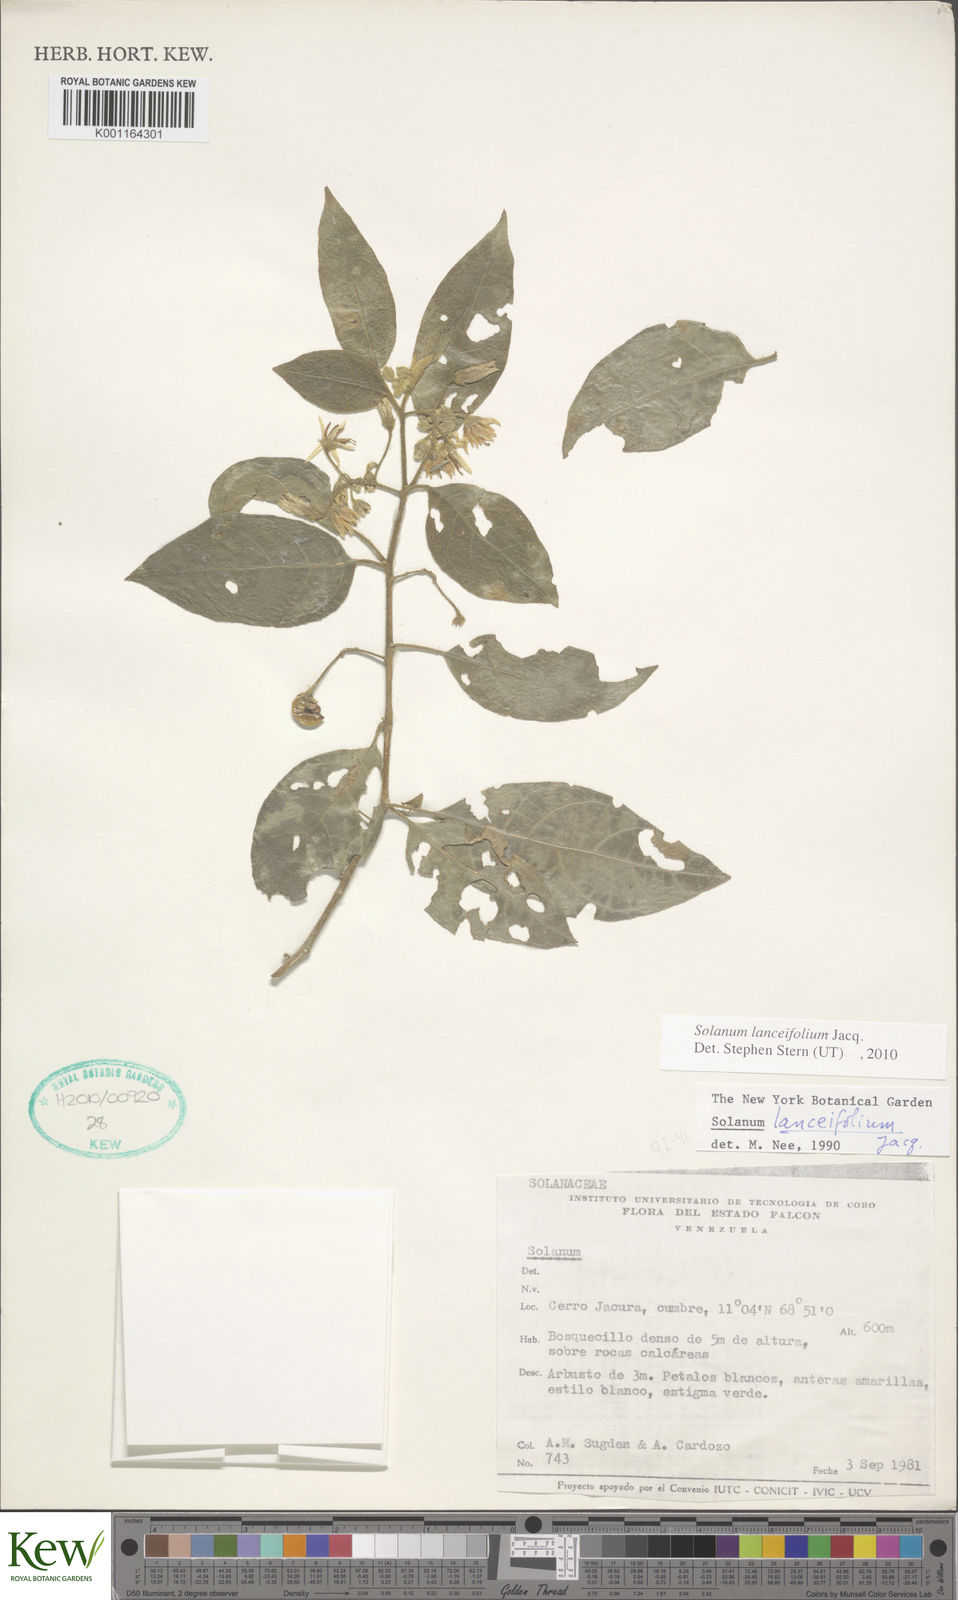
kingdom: Plantae
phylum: Tracheophyta
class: Magnoliopsida
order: Solanales
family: Solanaceae
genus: Solanum
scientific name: Solanum lanceifolium
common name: Lanceleaf nightshade
